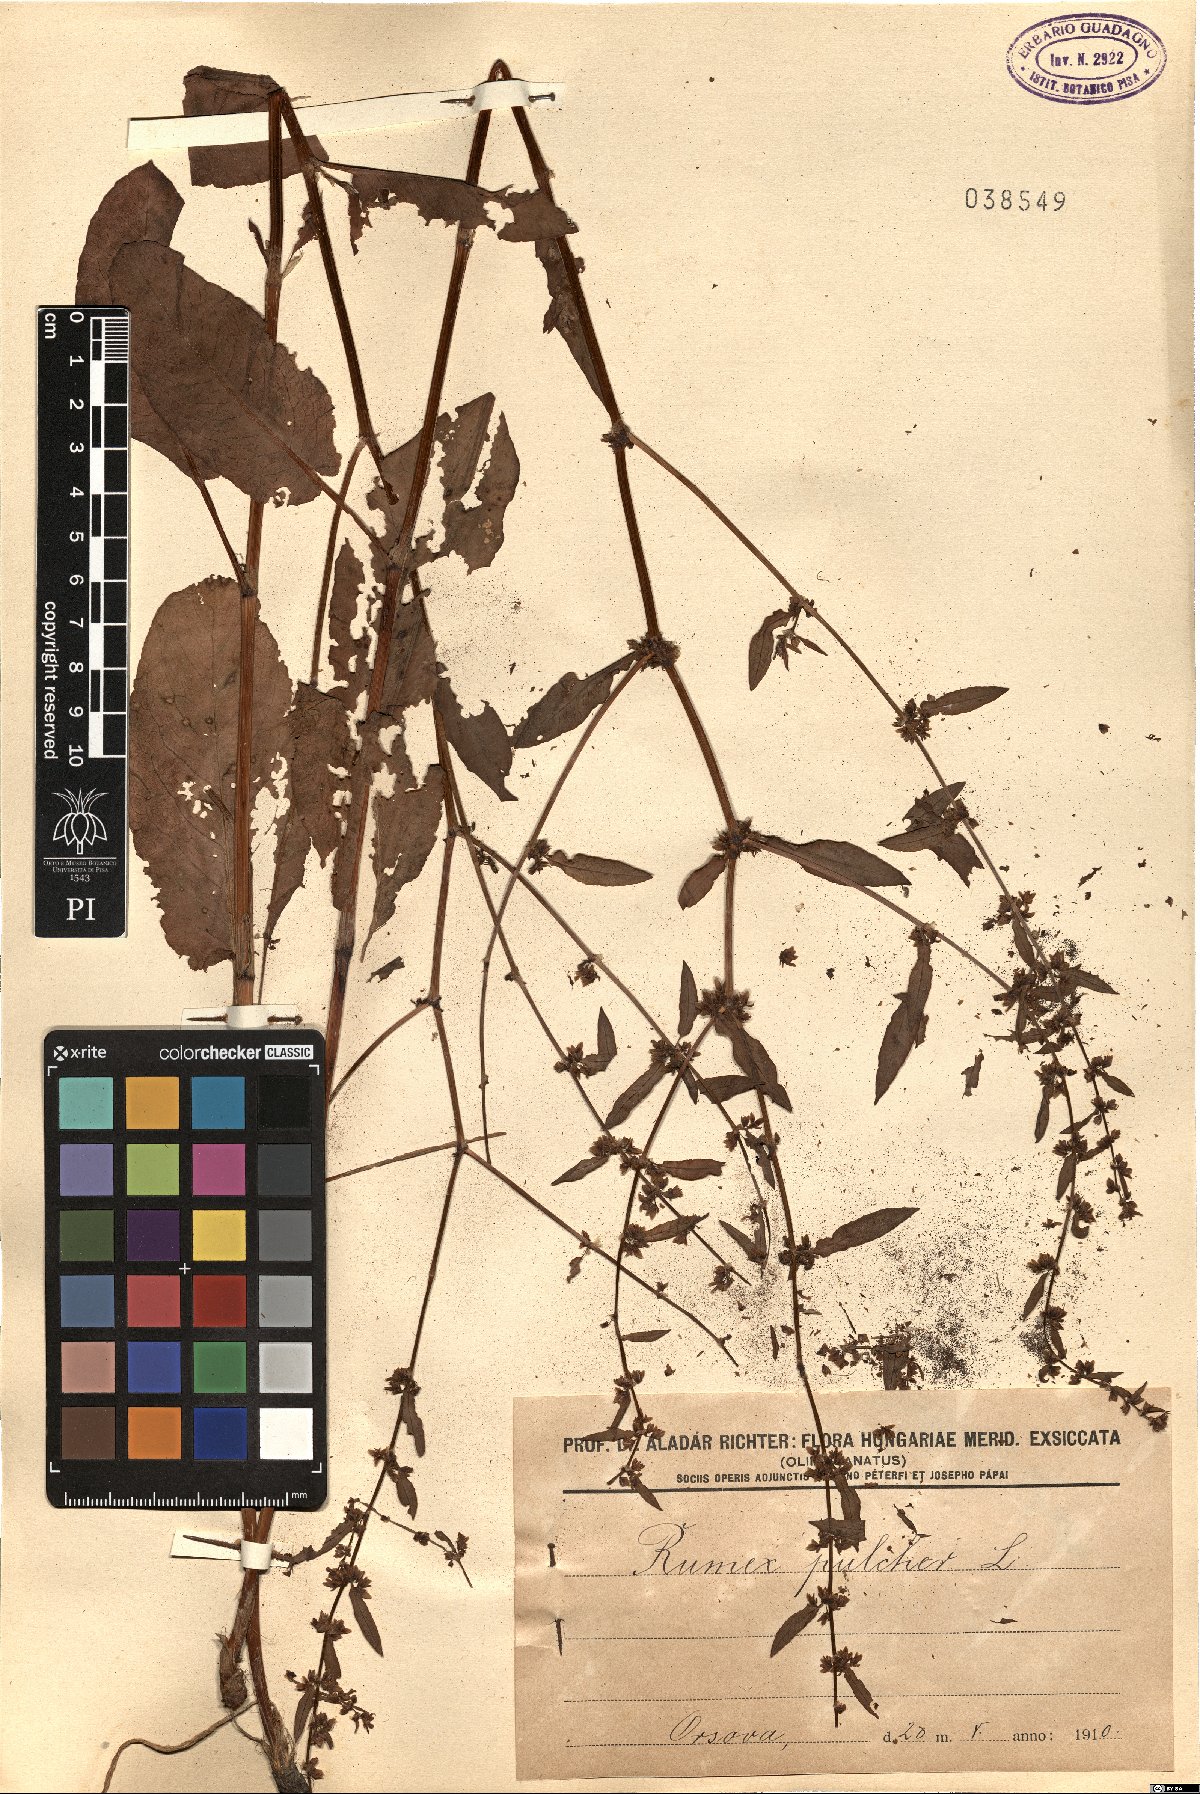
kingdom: Plantae
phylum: Tracheophyta
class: Magnoliopsida
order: Caryophyllales
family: Polygonaceae
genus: Rumex
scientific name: Rumex pulcher
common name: Fiddle dock
